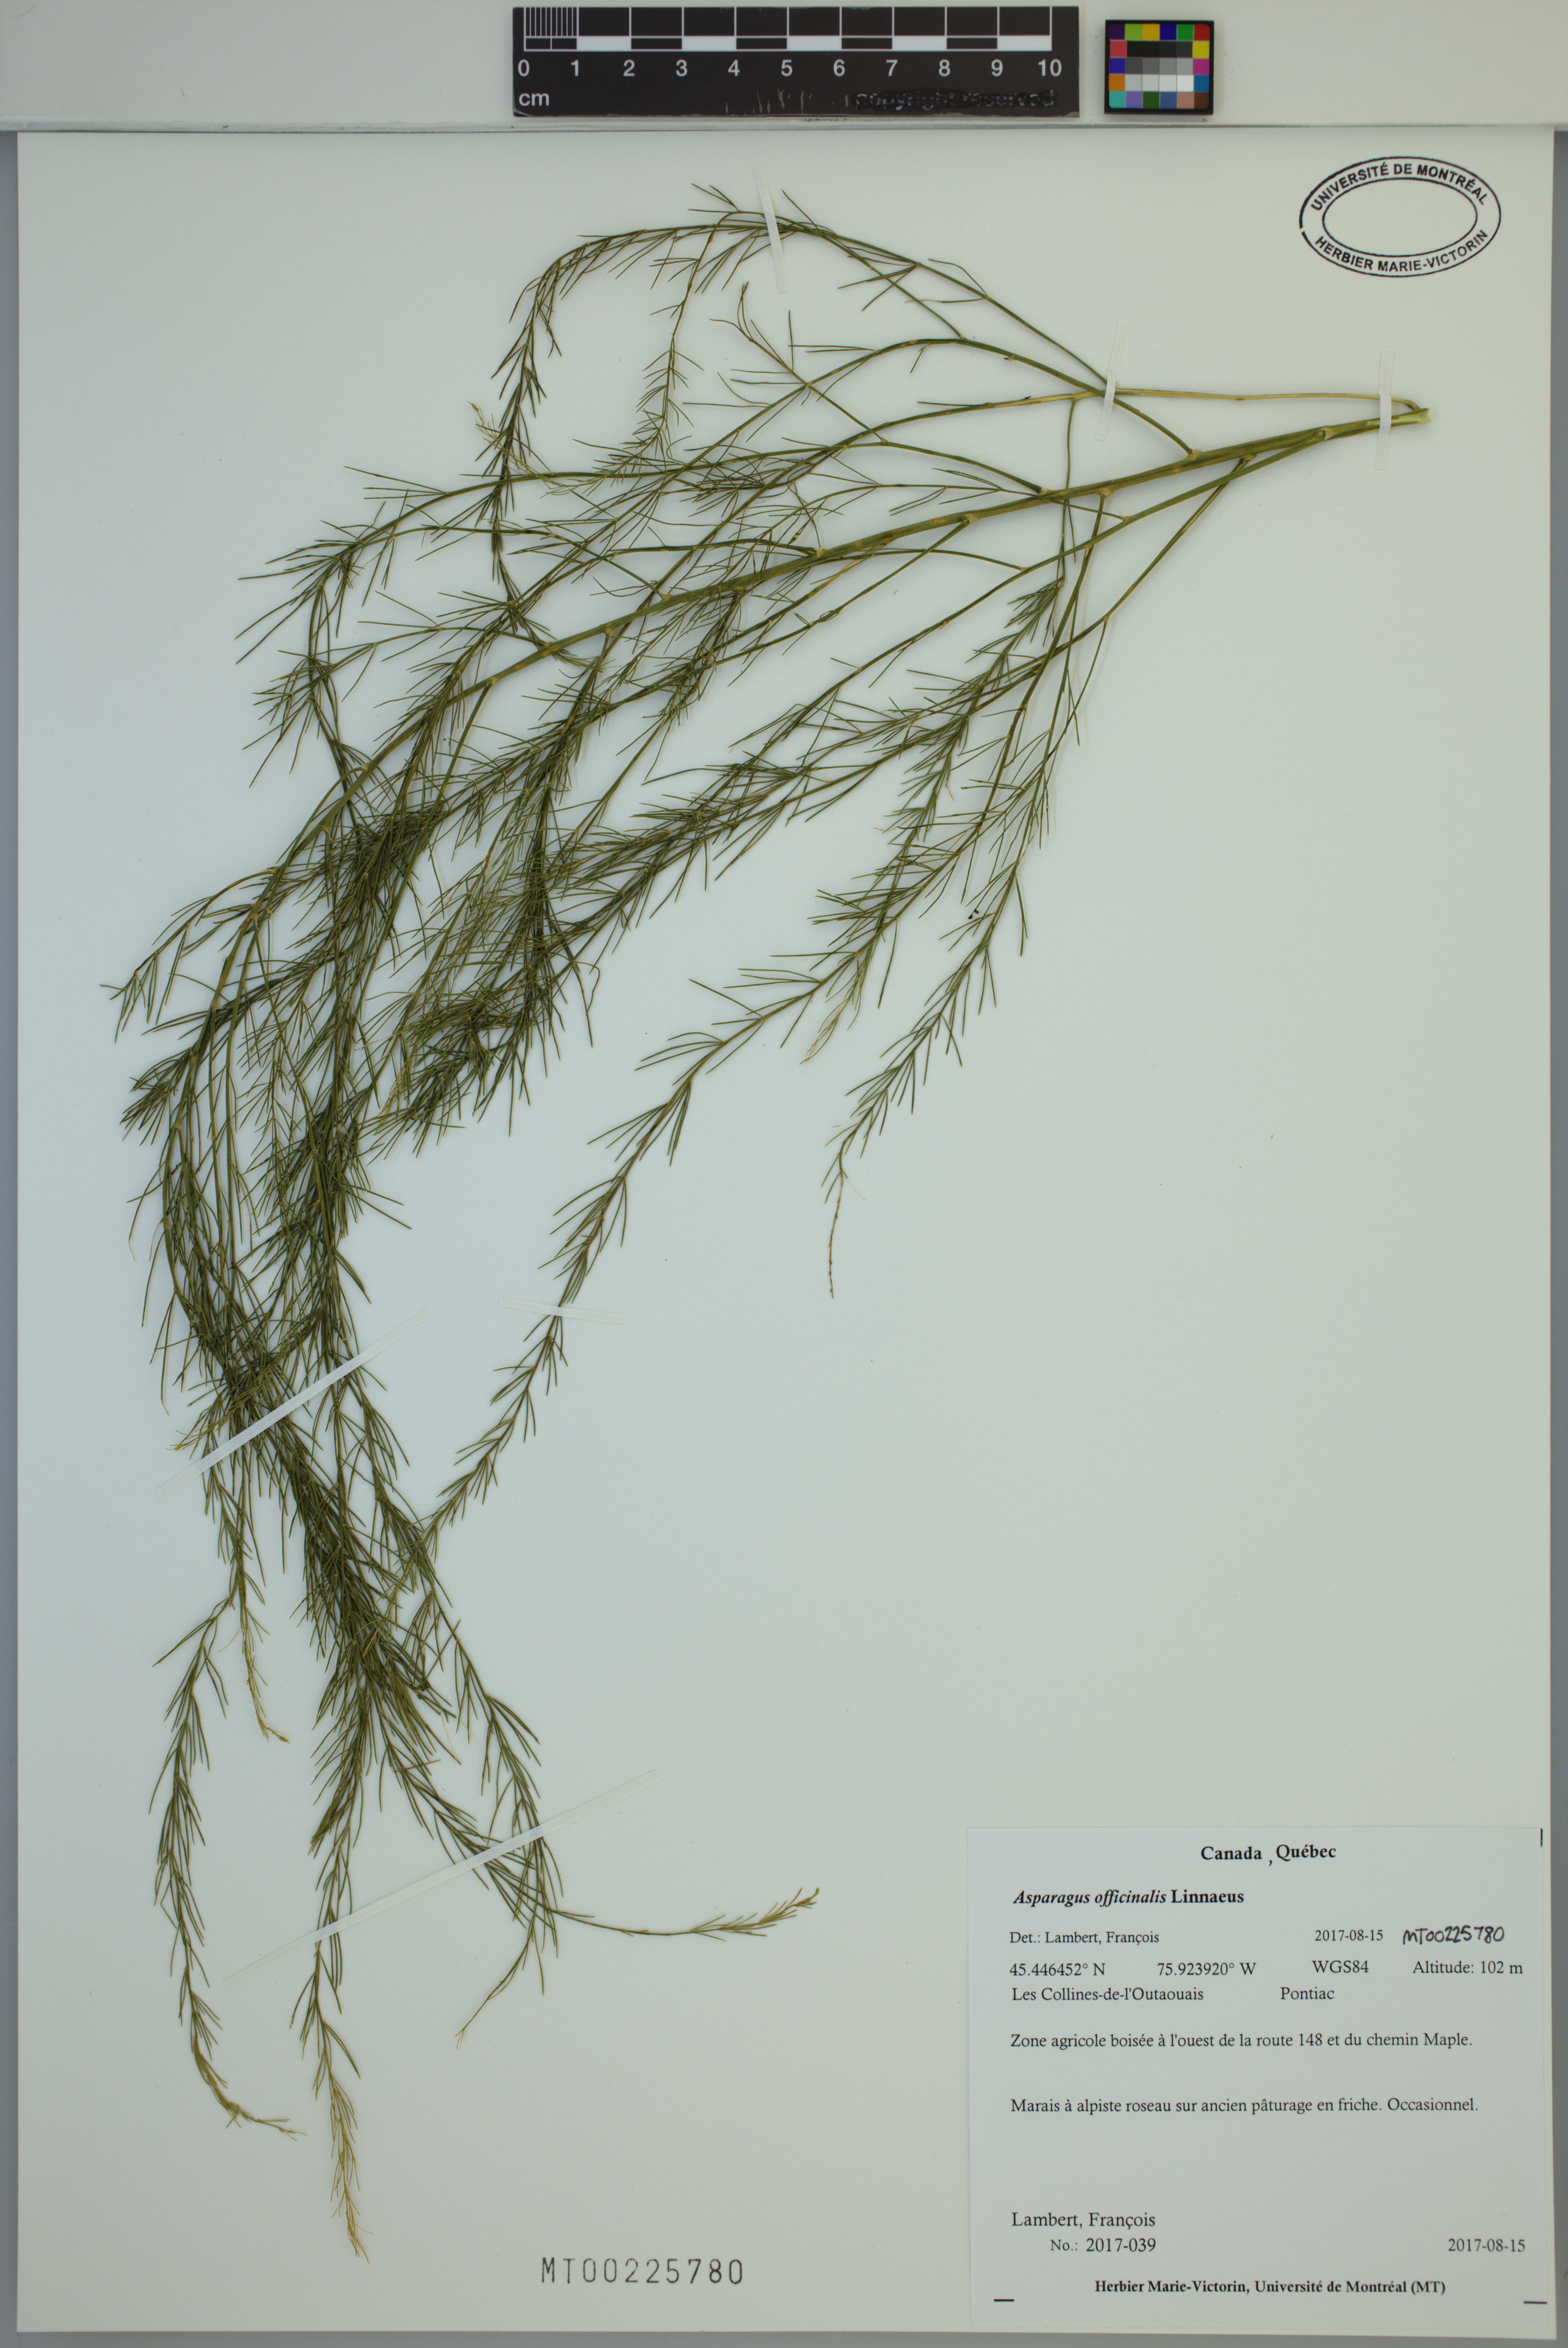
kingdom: Plantae
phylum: Tracheophyta
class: Liliopsida
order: Asparagales
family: Asparagaceae
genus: Asparagus
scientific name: Asparagus officinalis
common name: Garden asparagus
